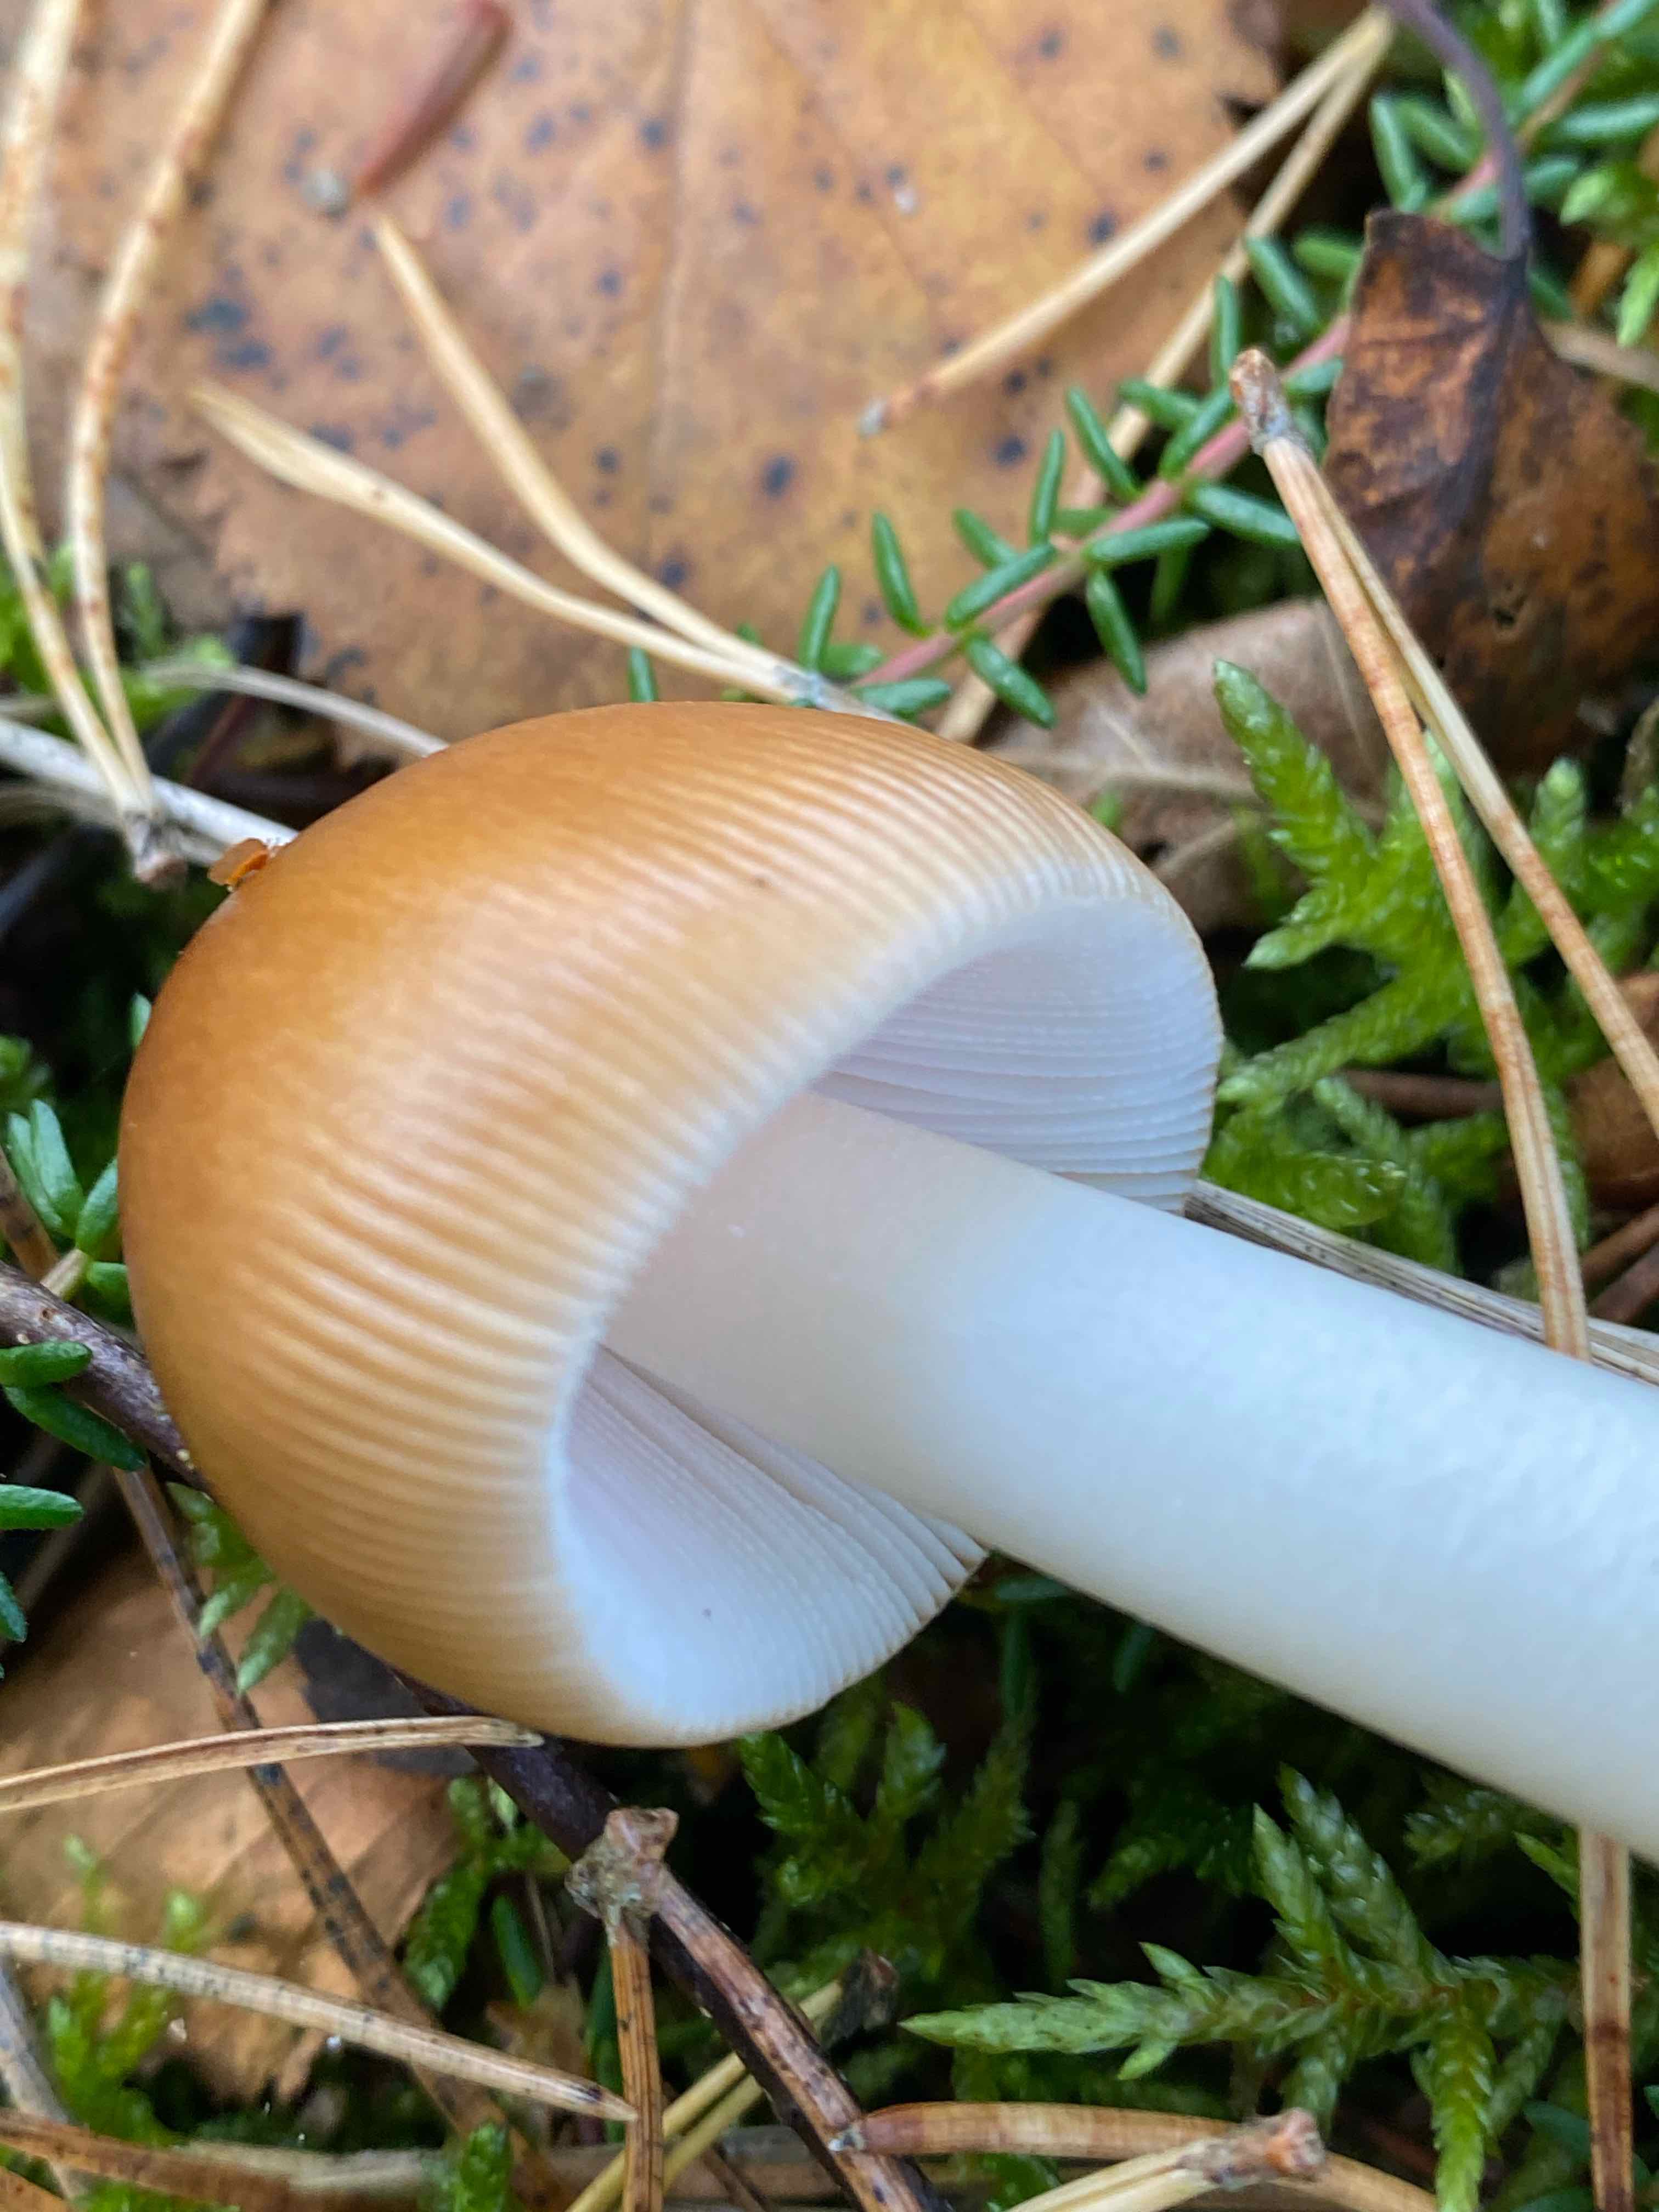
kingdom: Fungi
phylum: Basidiomycota
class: Agaricomycetes
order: Agaricales
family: Amanitaceae
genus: Amanita
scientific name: Amanita fulva
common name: brun kam-fluesvamp
